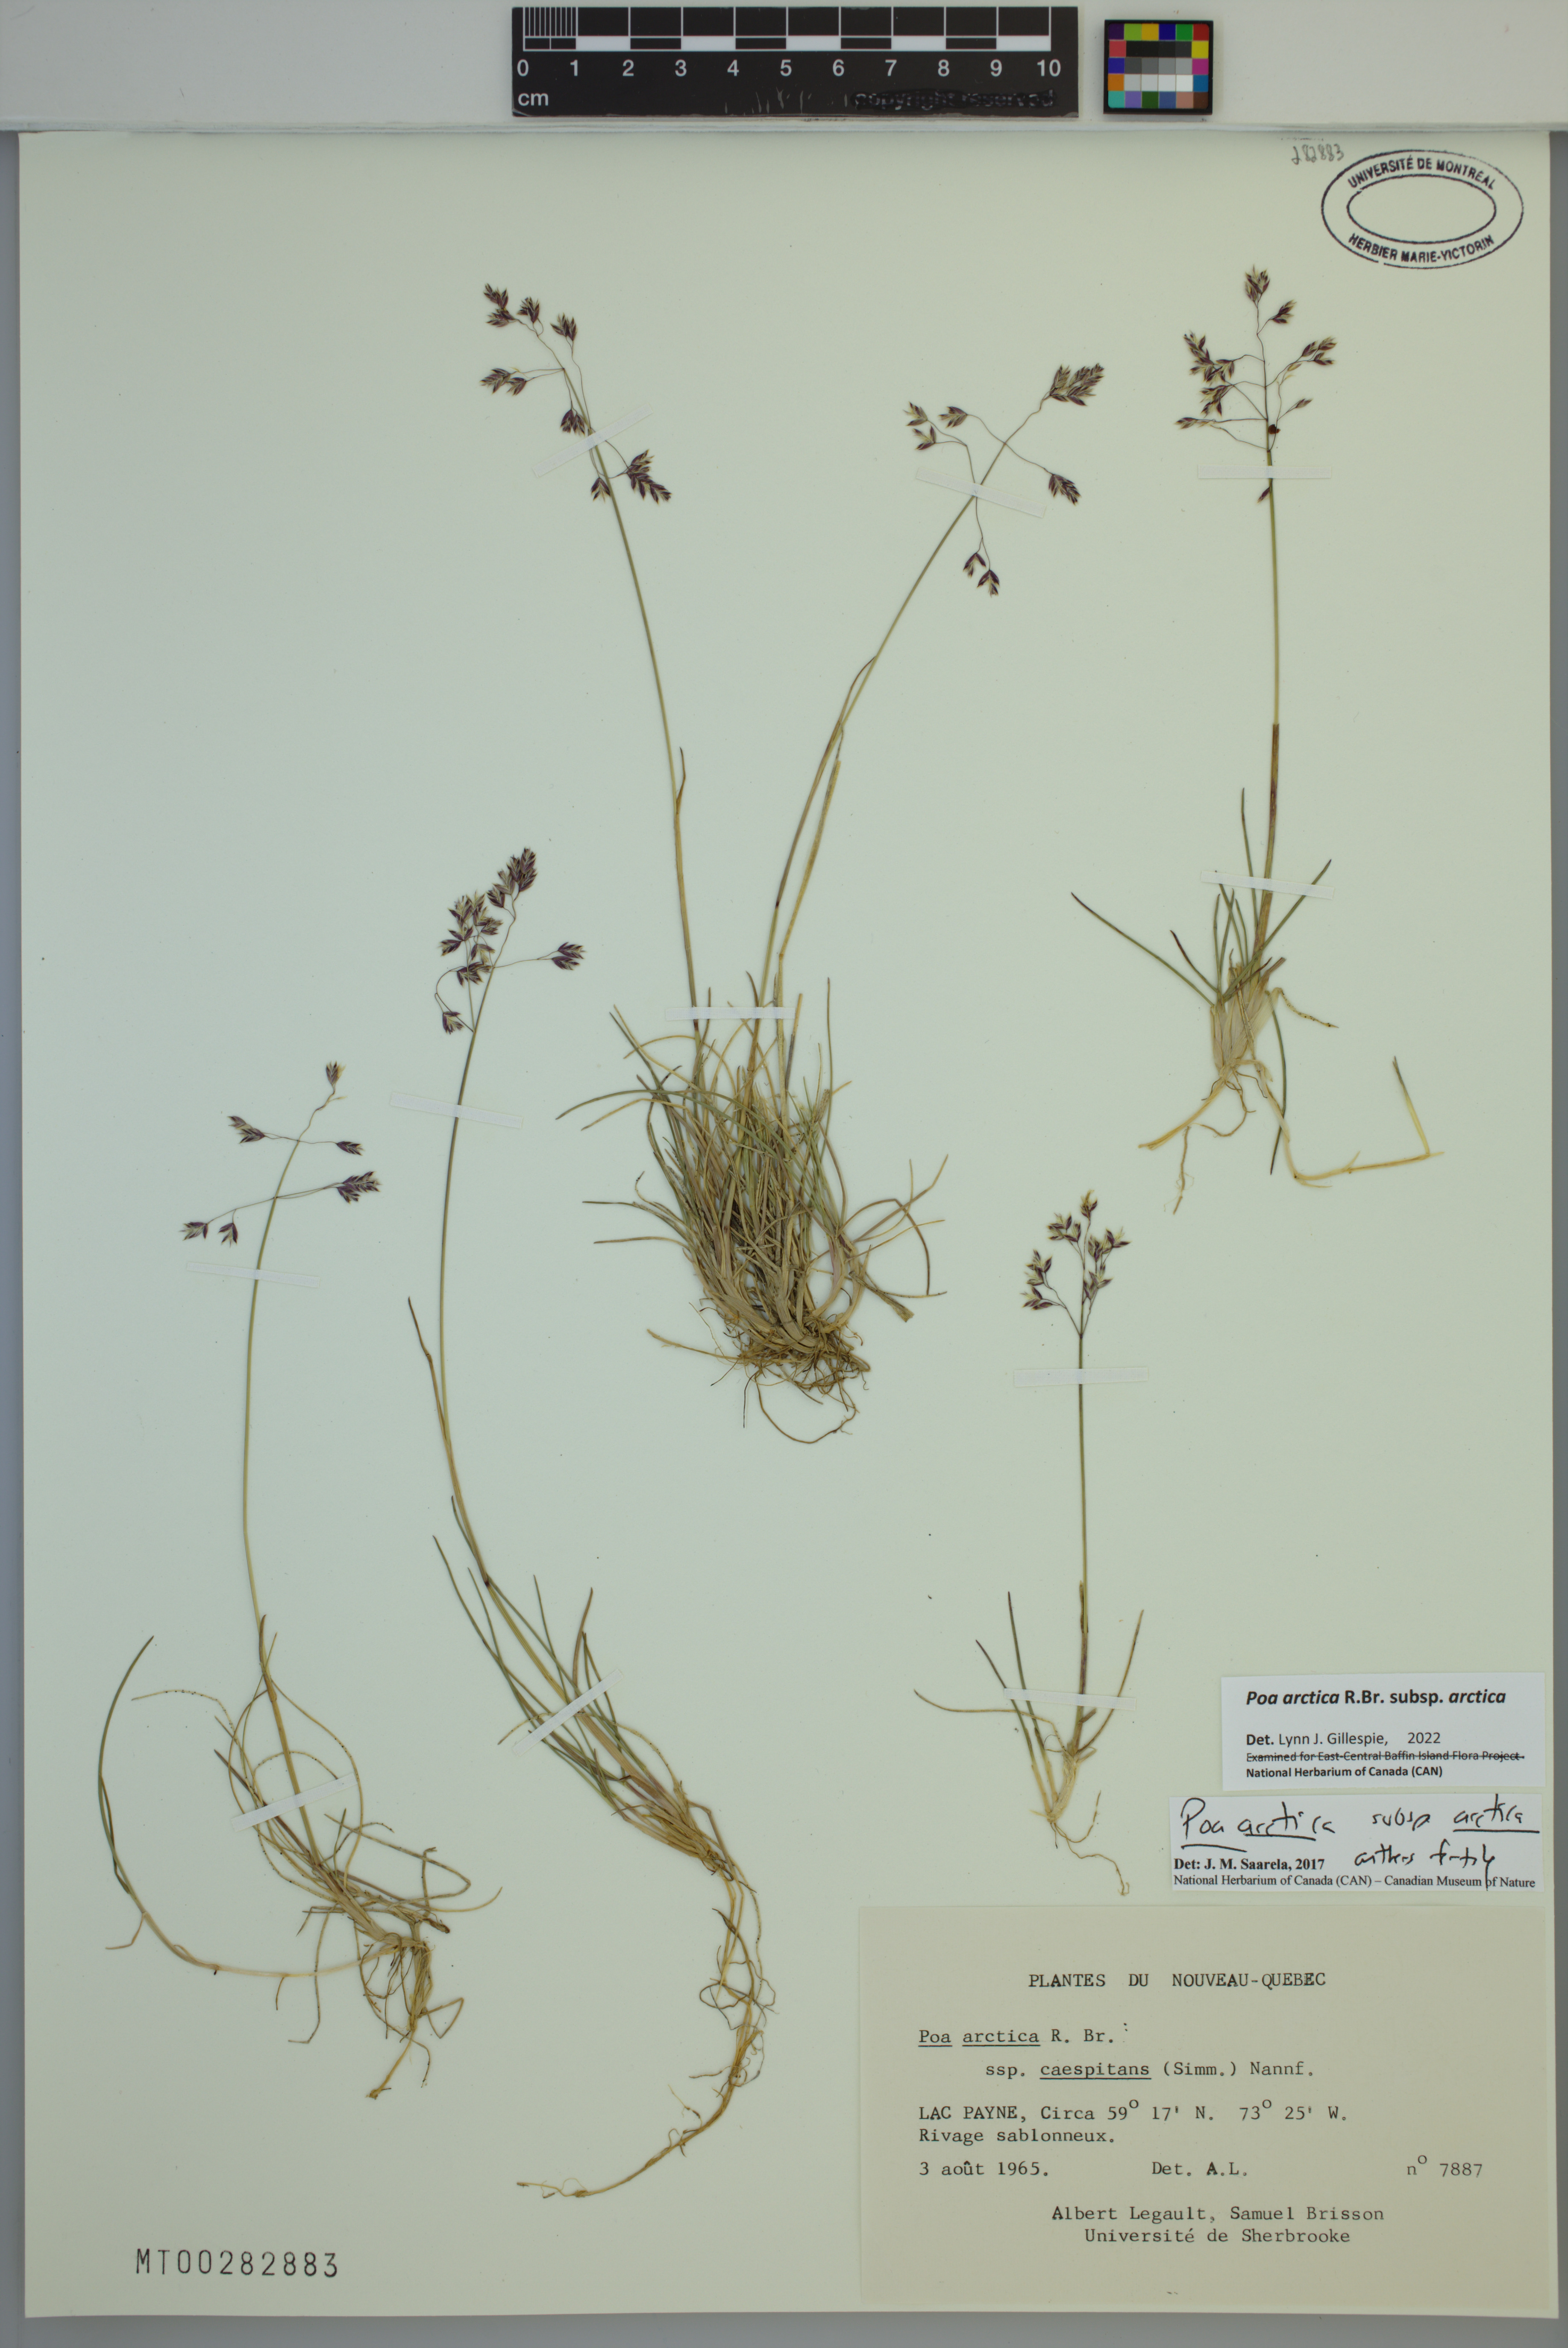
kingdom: Plantae
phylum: Tracheophyta
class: Liliopsida
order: Poales
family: Poaceae
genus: Poa
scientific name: Poa arctica
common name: Arctic bluegrass
